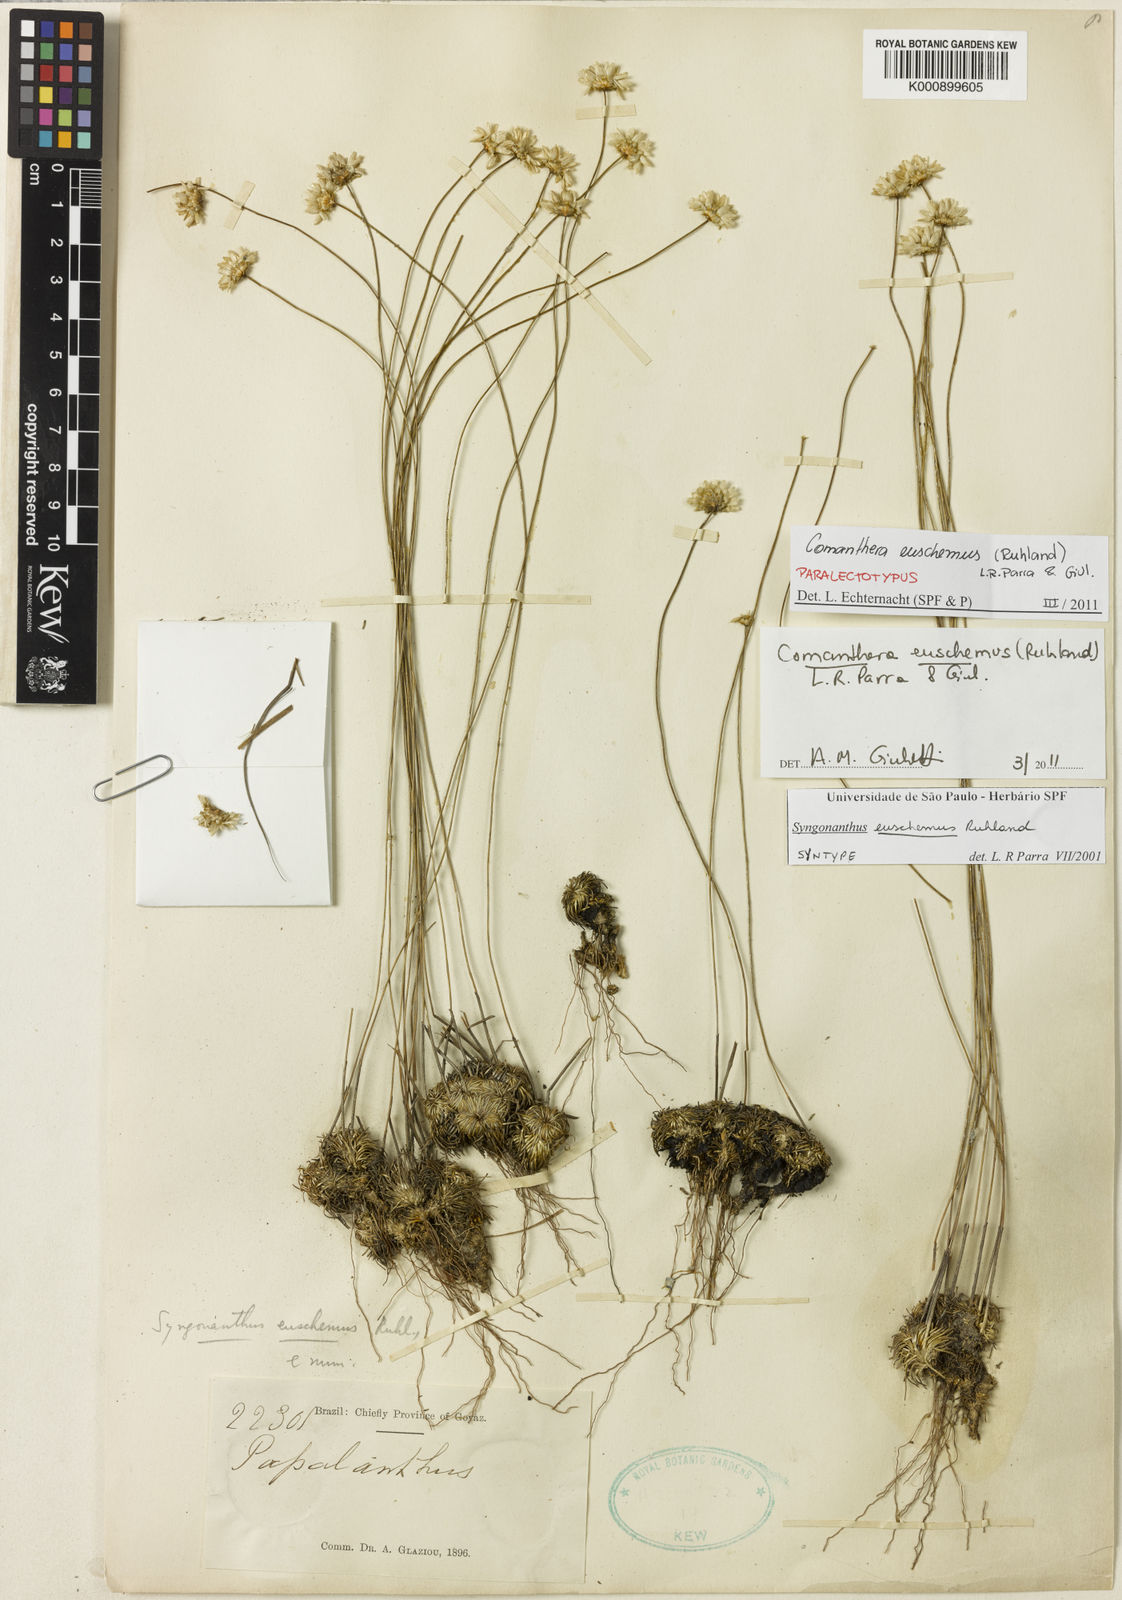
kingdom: Plantae
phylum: Tracheophyta
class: Liliopsida
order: Poales
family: Eriocaulaceae
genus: Comanthera
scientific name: Comanthera euschemus
